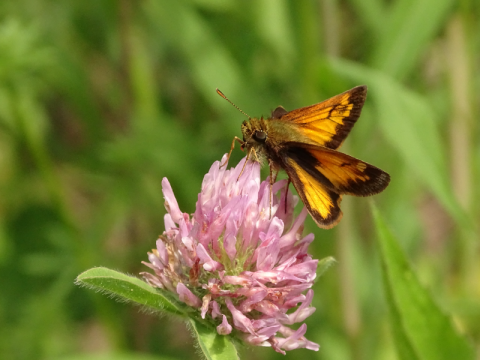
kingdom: Animalia
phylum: Arthropoda
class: Insecta
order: Lepidoptera
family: Hesperiidae
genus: Lon
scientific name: Lon hobomok
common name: Hobomok Skipper
